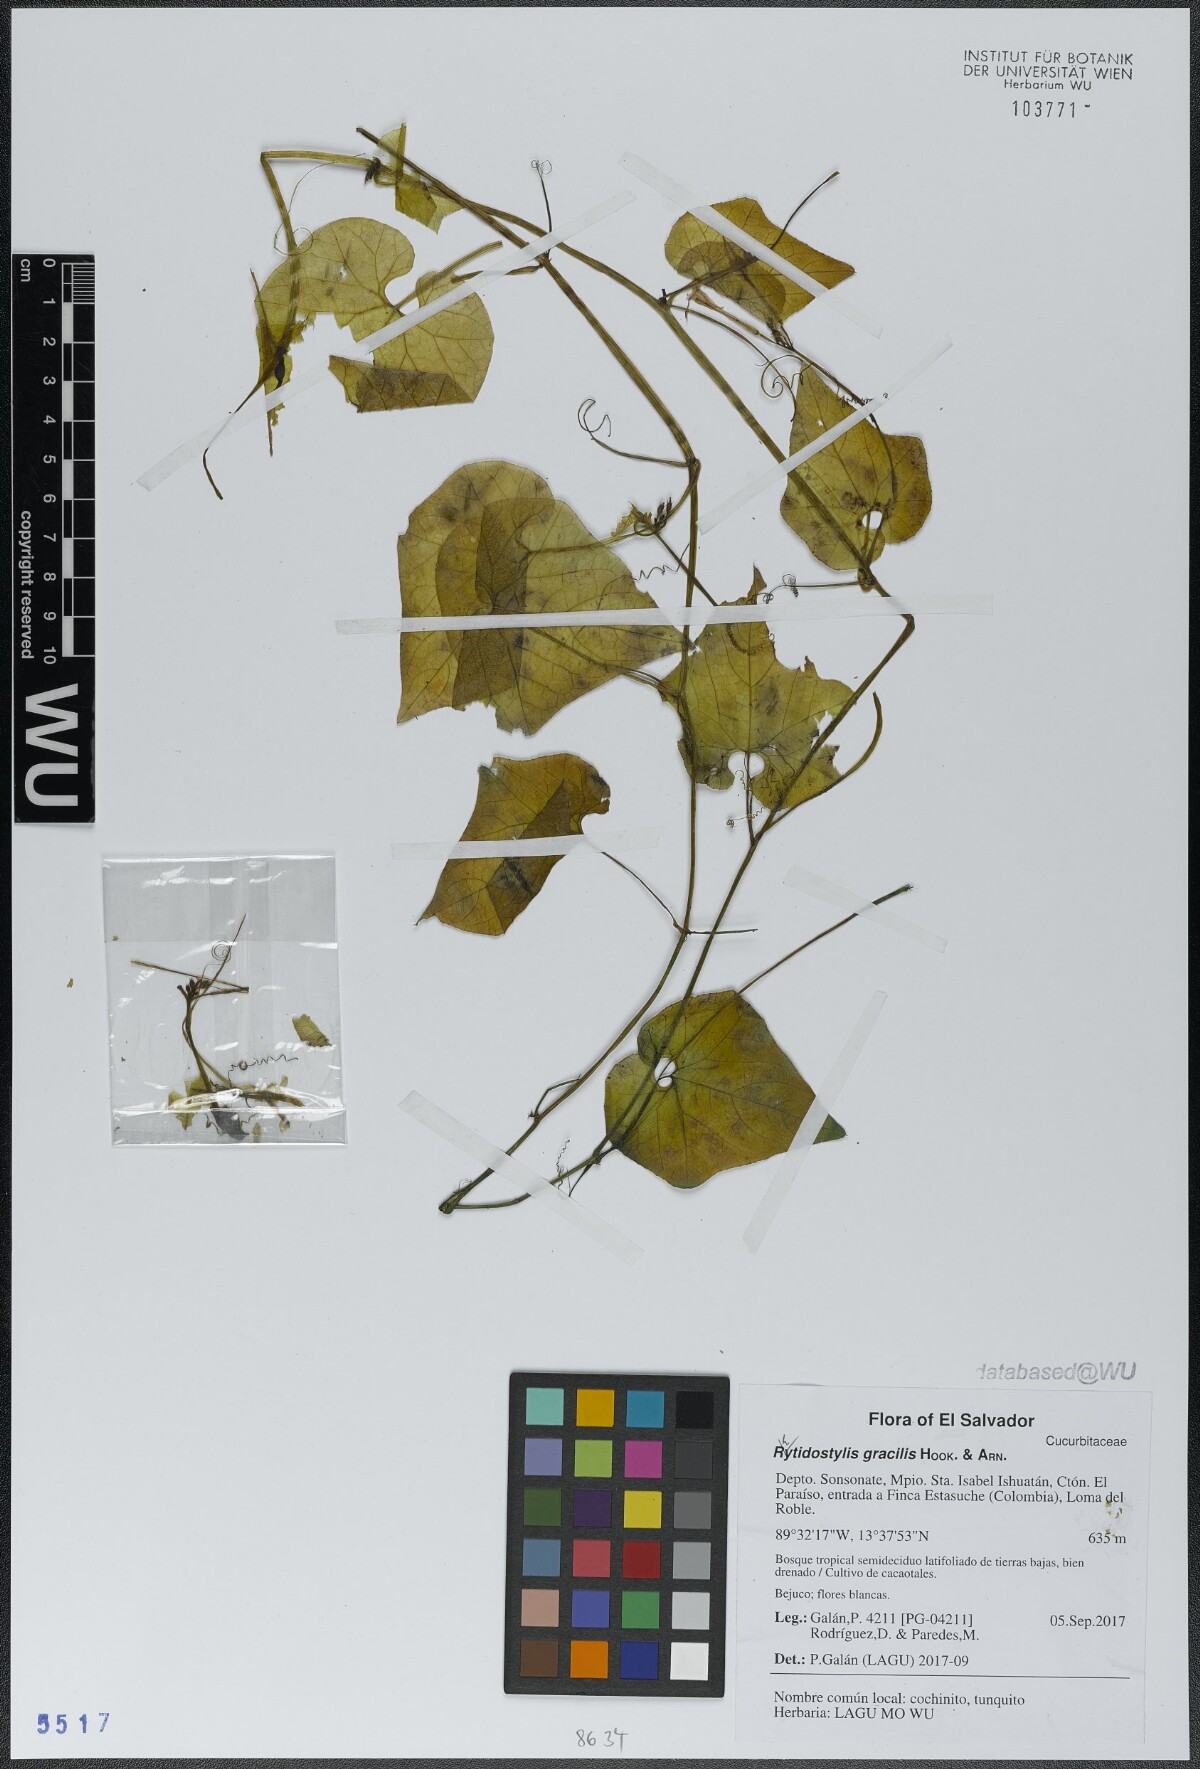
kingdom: Plantae
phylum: Tracheophyta
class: Magnoliopsida
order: Cucurbitales
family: Cucurbitaceae
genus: Cyclanthera
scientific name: Cyclanthera filiformis
